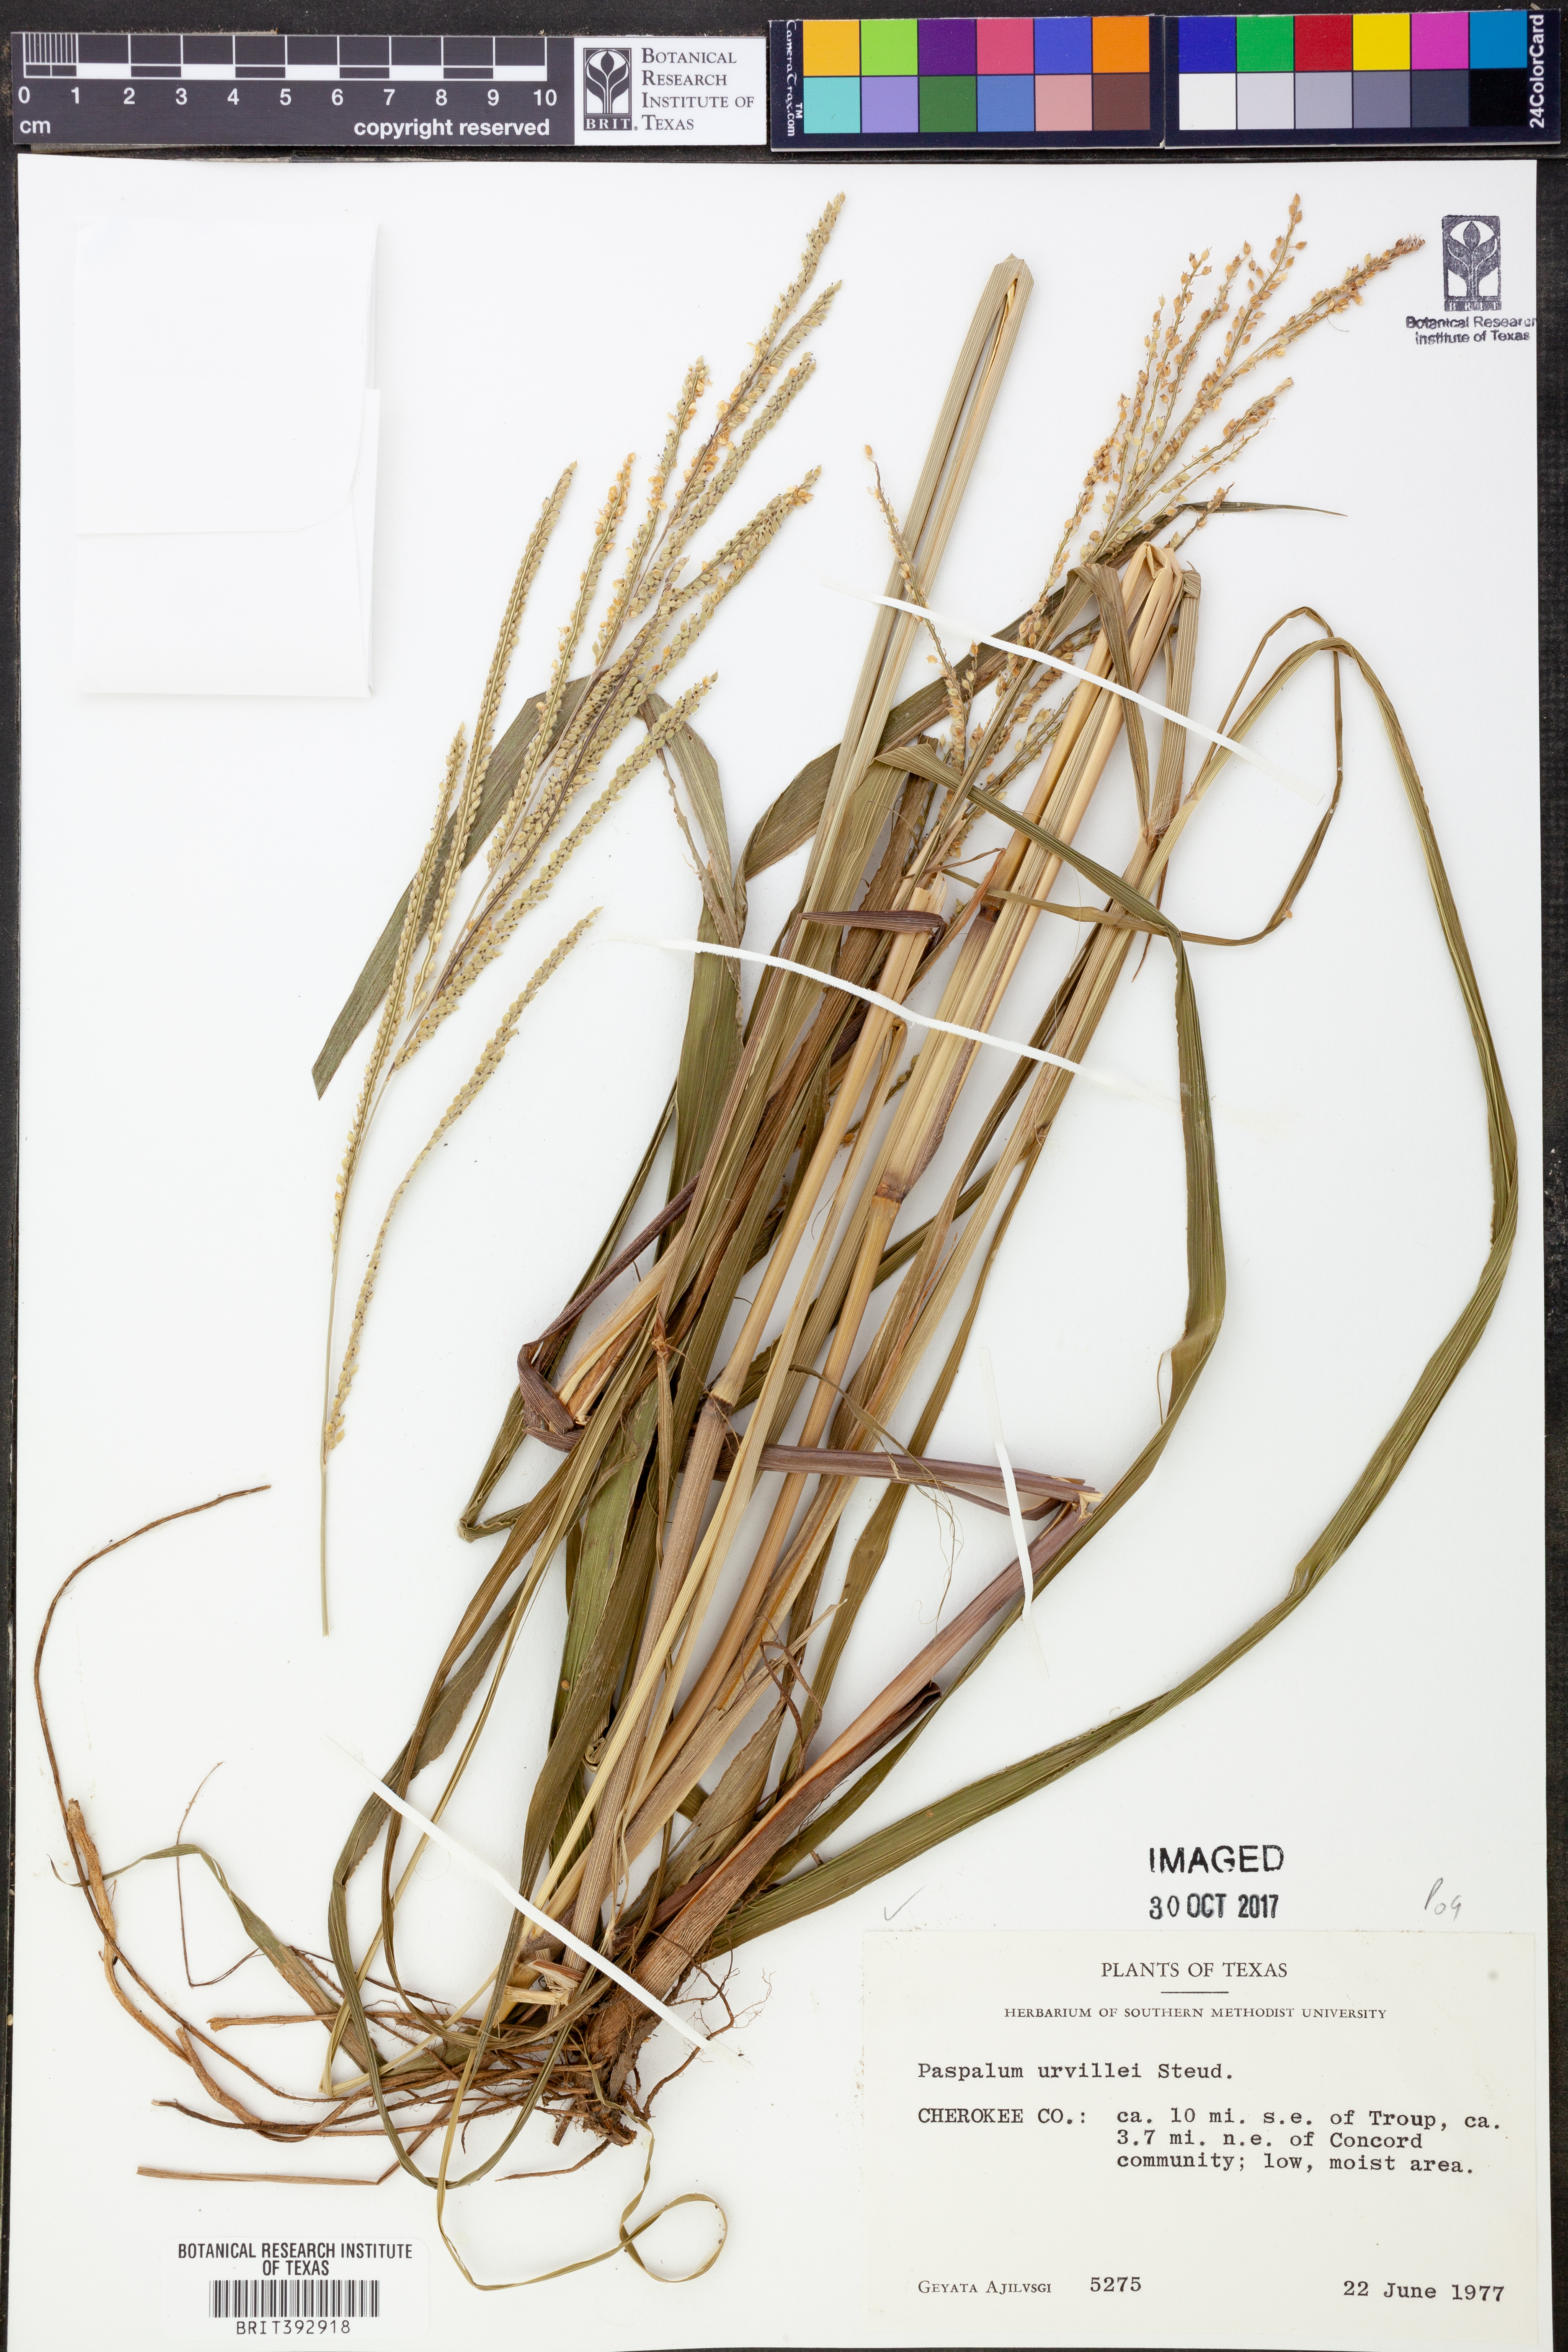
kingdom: Plantae
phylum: Tracheophyta
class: Liliopsida
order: Poales
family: Poaceae
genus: Paspalum
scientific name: Paspalum urvillei
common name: Vasey's grass
